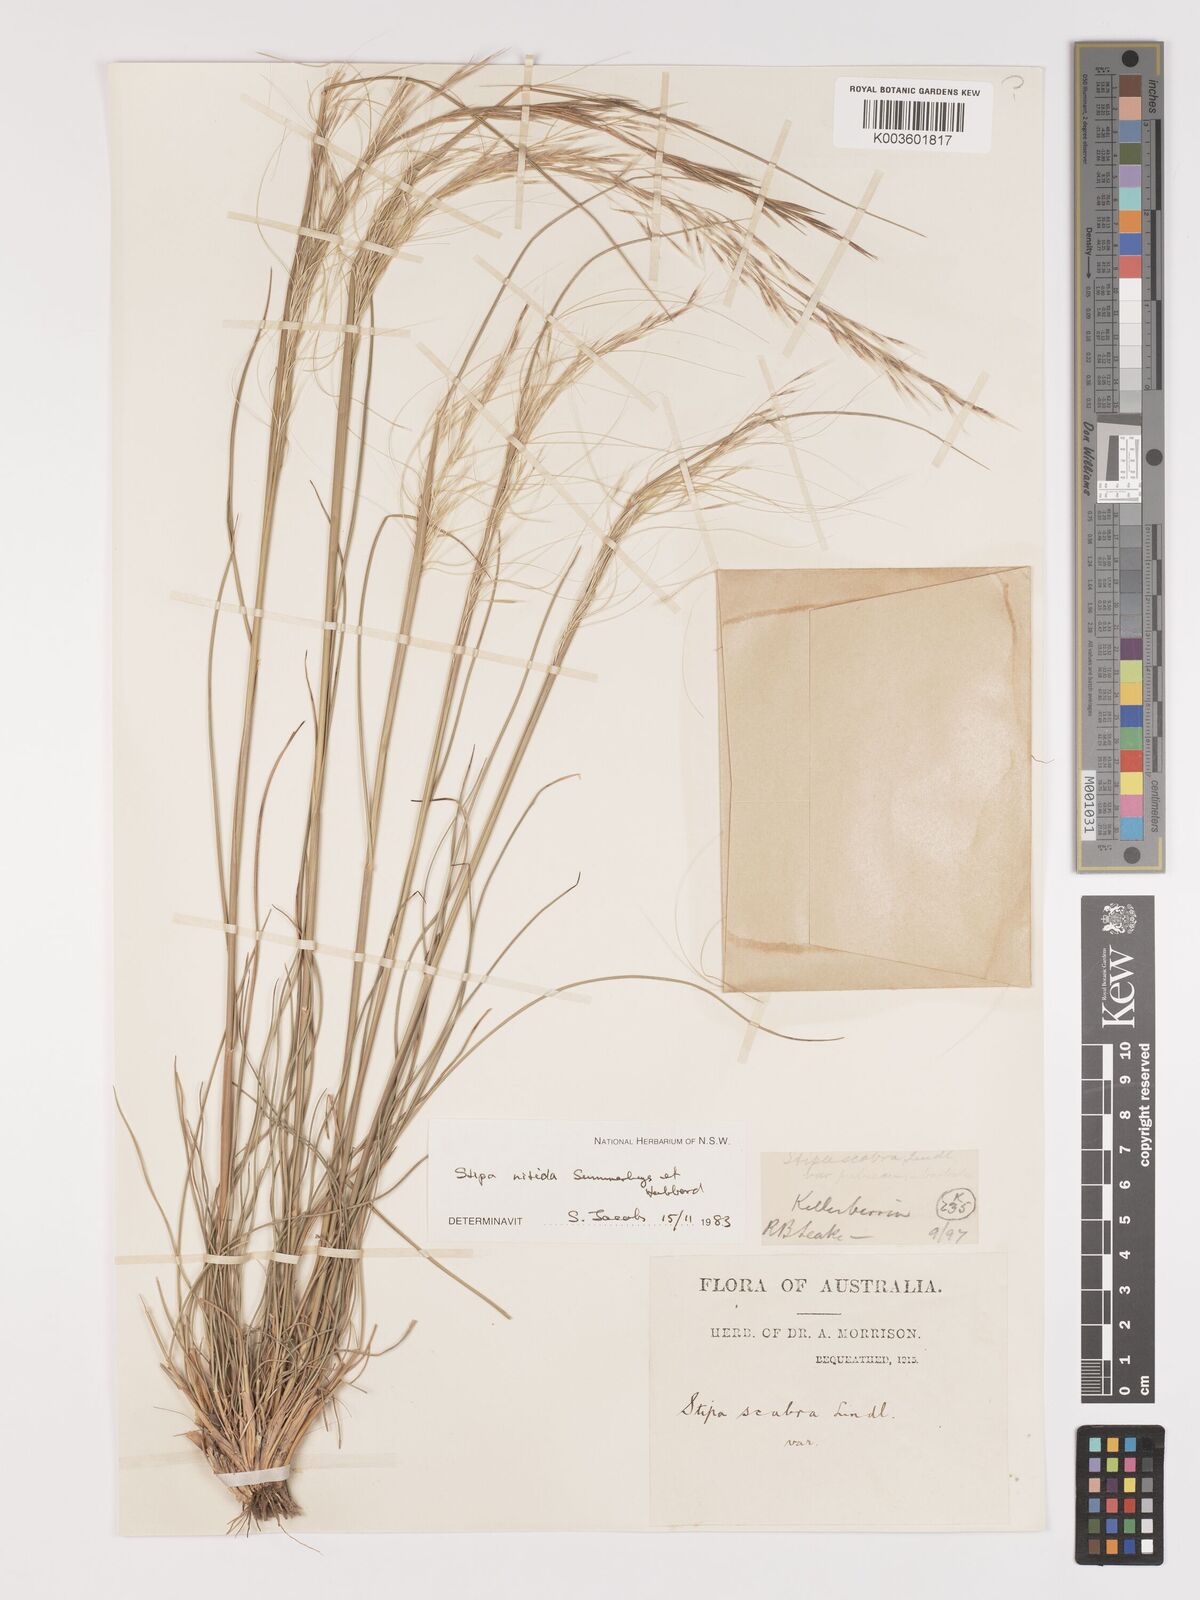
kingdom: Plantae
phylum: Tracheophyta
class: Liliopsida
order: Poales
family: Poaceae
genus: Austrostipa
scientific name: Austrostipa nitida
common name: Balcarra grass
